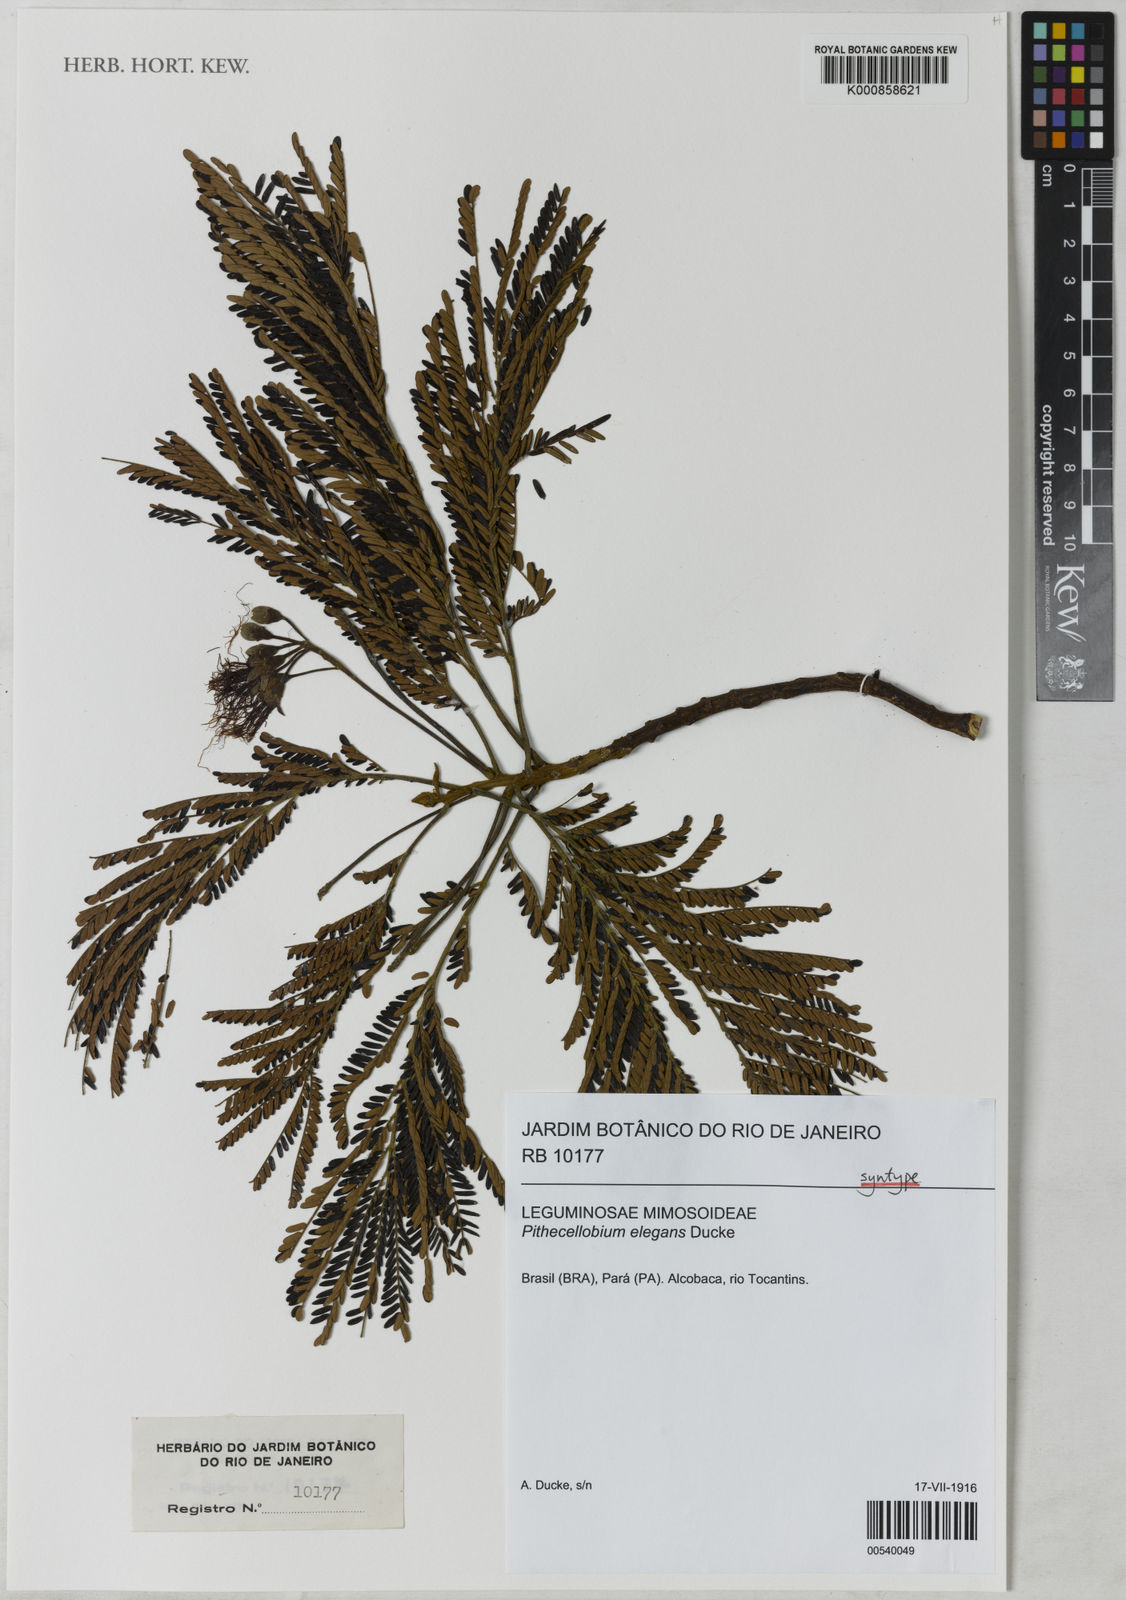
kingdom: Plantae
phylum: Tracheophyta
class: Magnoliopsida
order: Fabales
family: Fabaceae
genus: Balizia
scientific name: Balizia elegans
